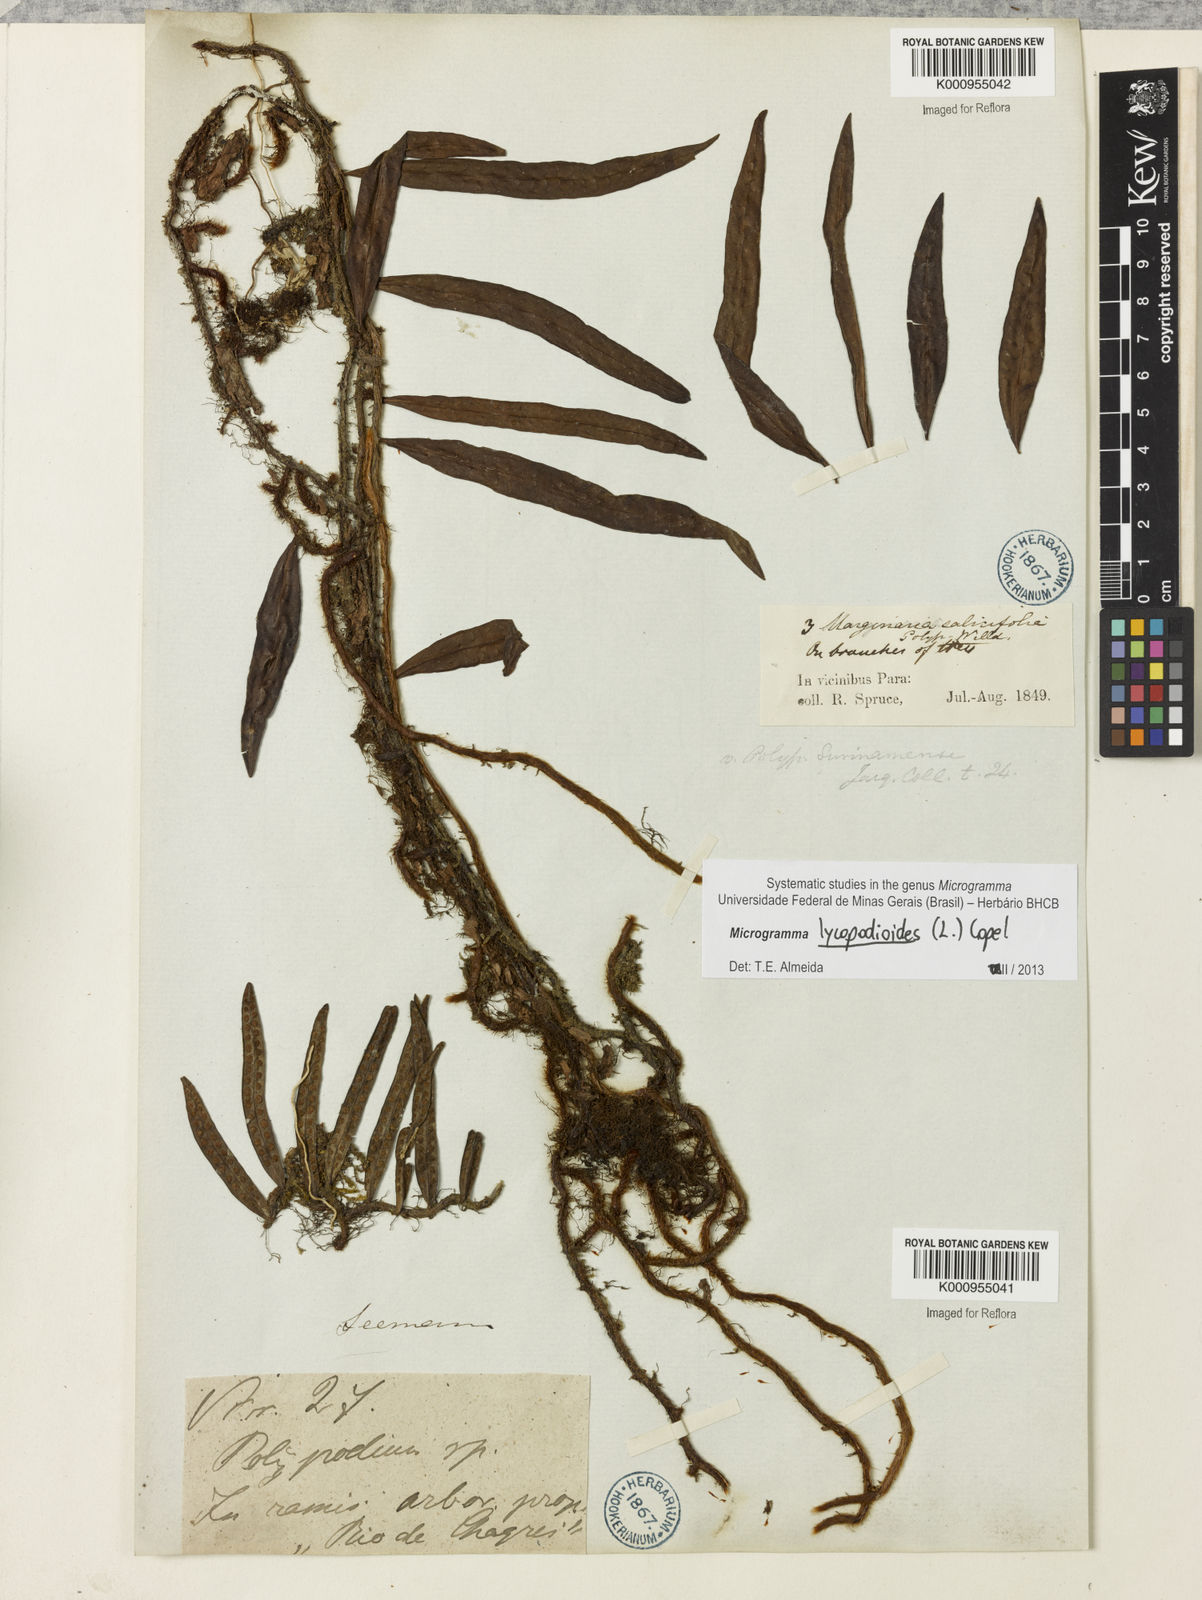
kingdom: Plantae
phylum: Tracheophyta
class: Polypodiopsida
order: Polypodiales
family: Polypodiaceae
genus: Microgramma
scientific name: Microgramma lycopodioides
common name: Bastard catclaw
